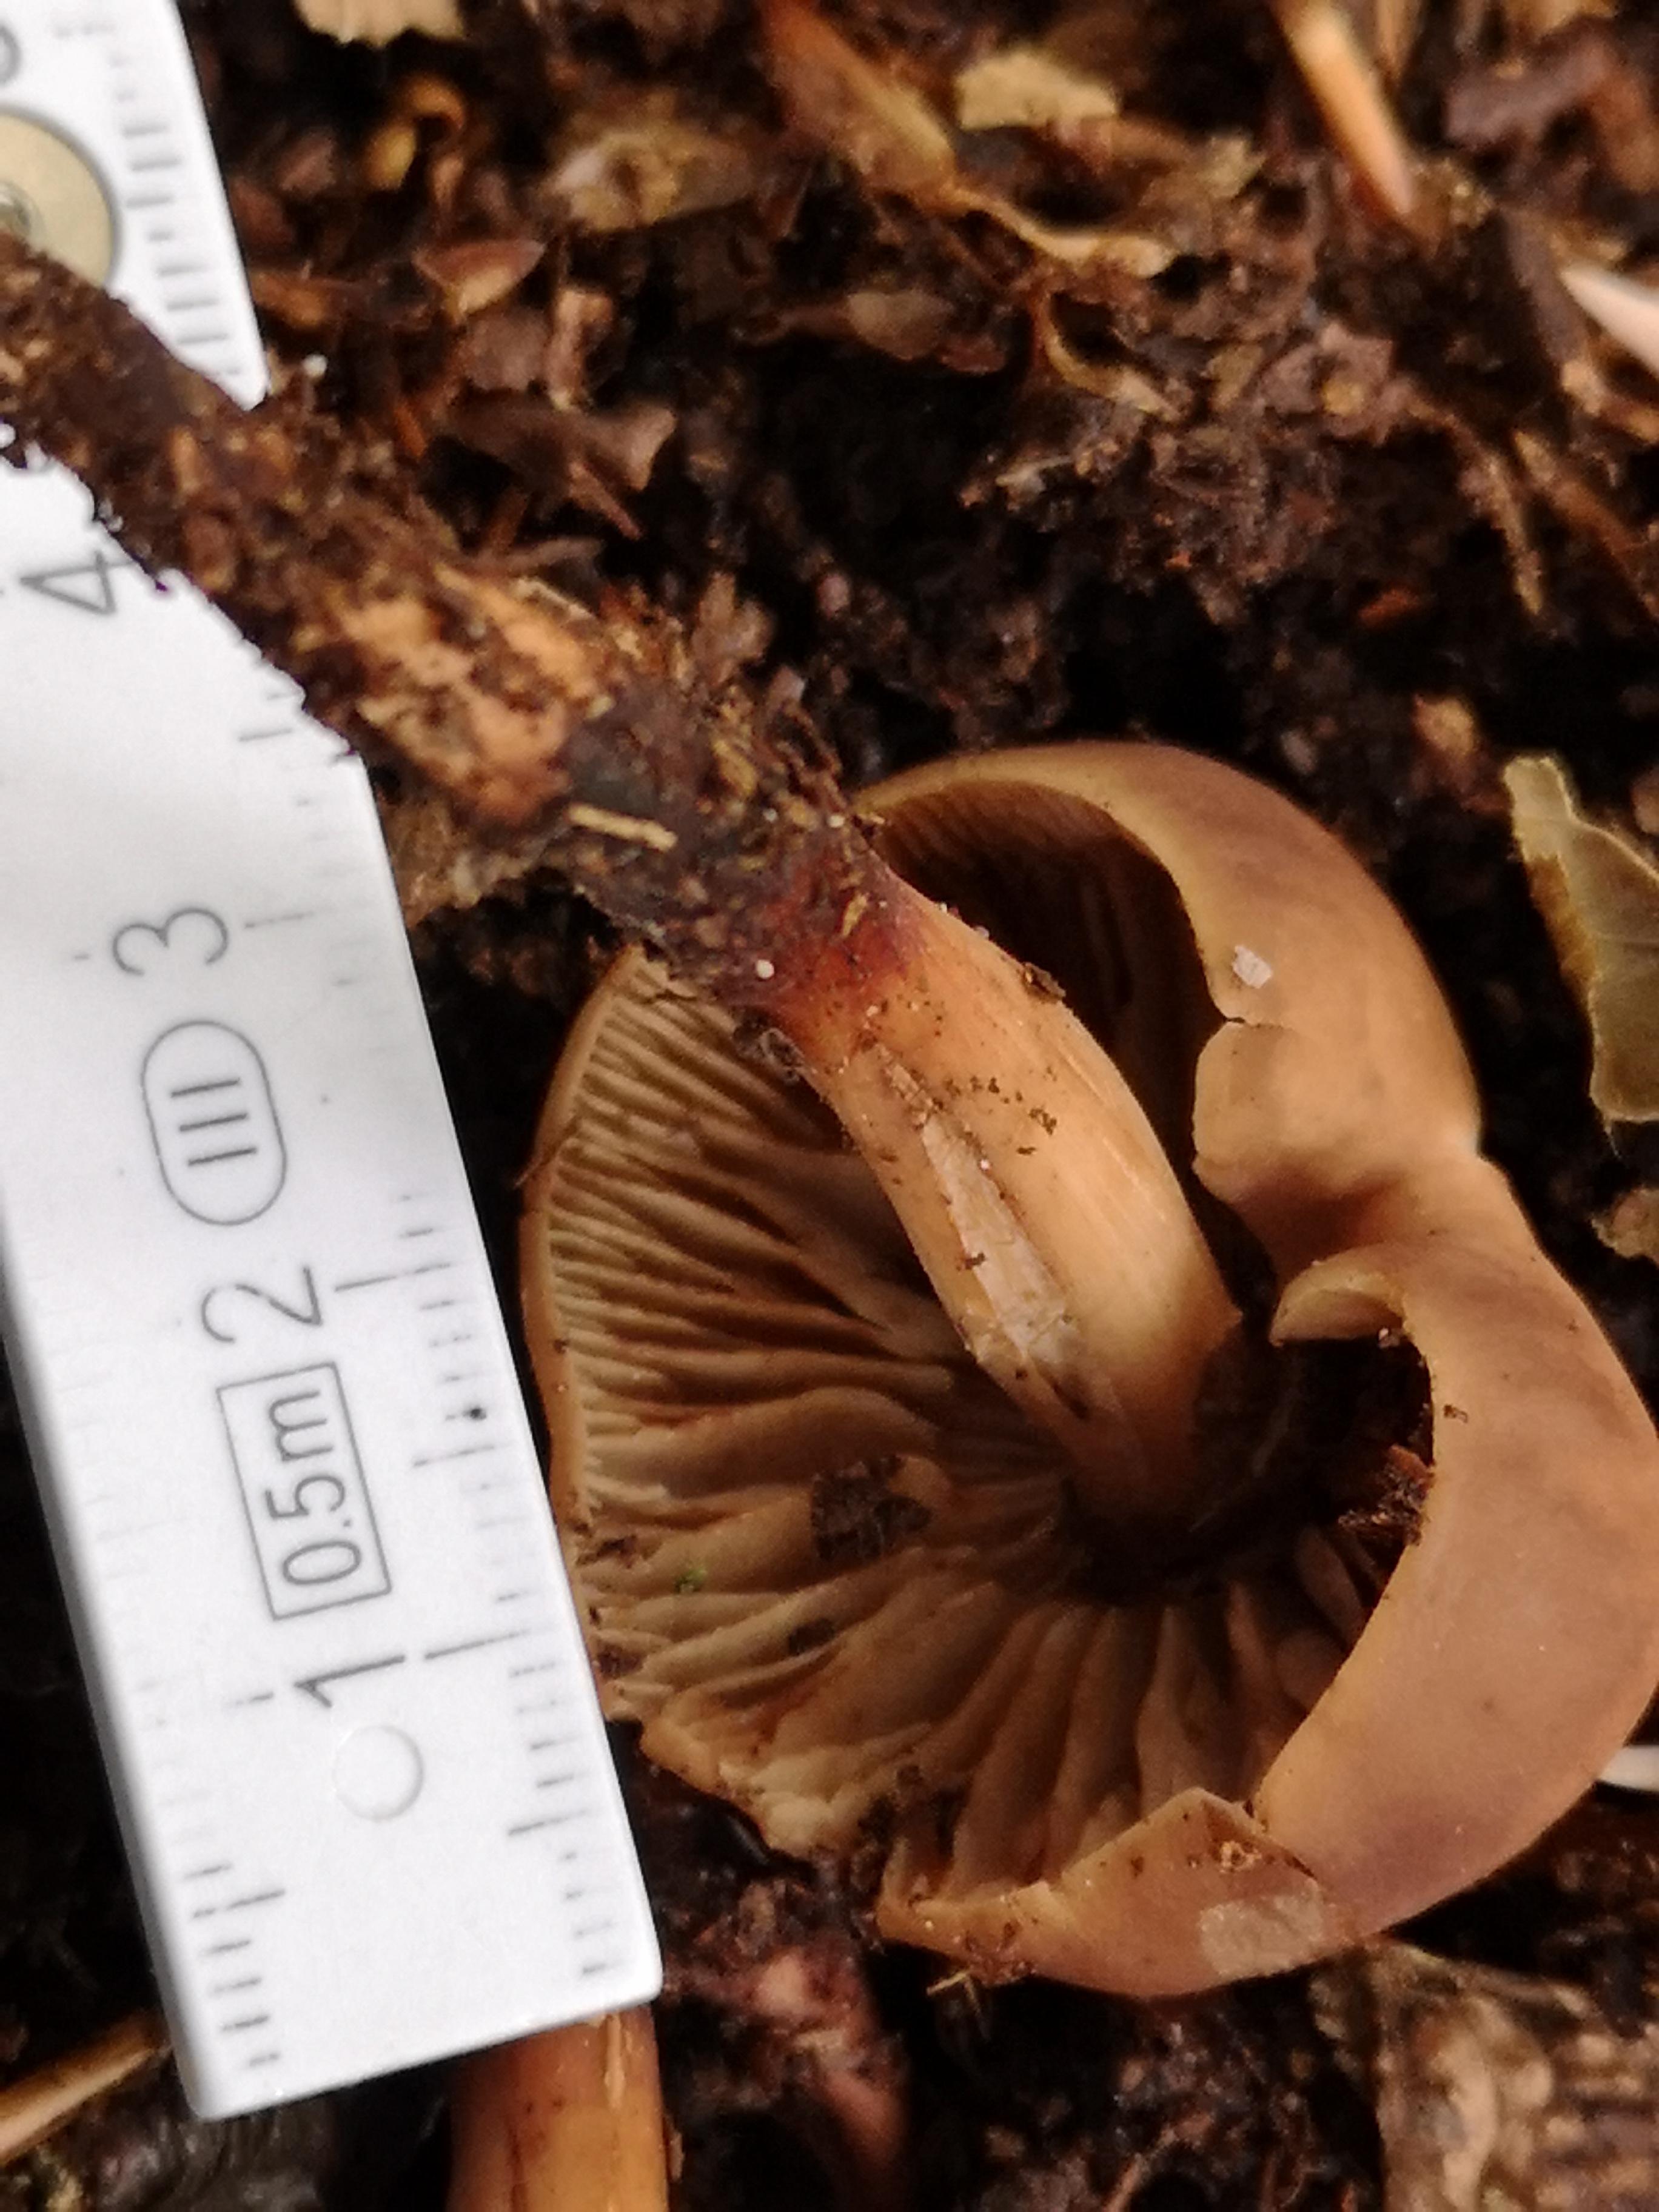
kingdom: Fungi
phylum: Basidiomycota
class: Agaricomycetes
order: Agaricales
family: Omphalotaceae
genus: Gymnopus
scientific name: Gymnopus fusipes
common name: tenstokket fladhat
